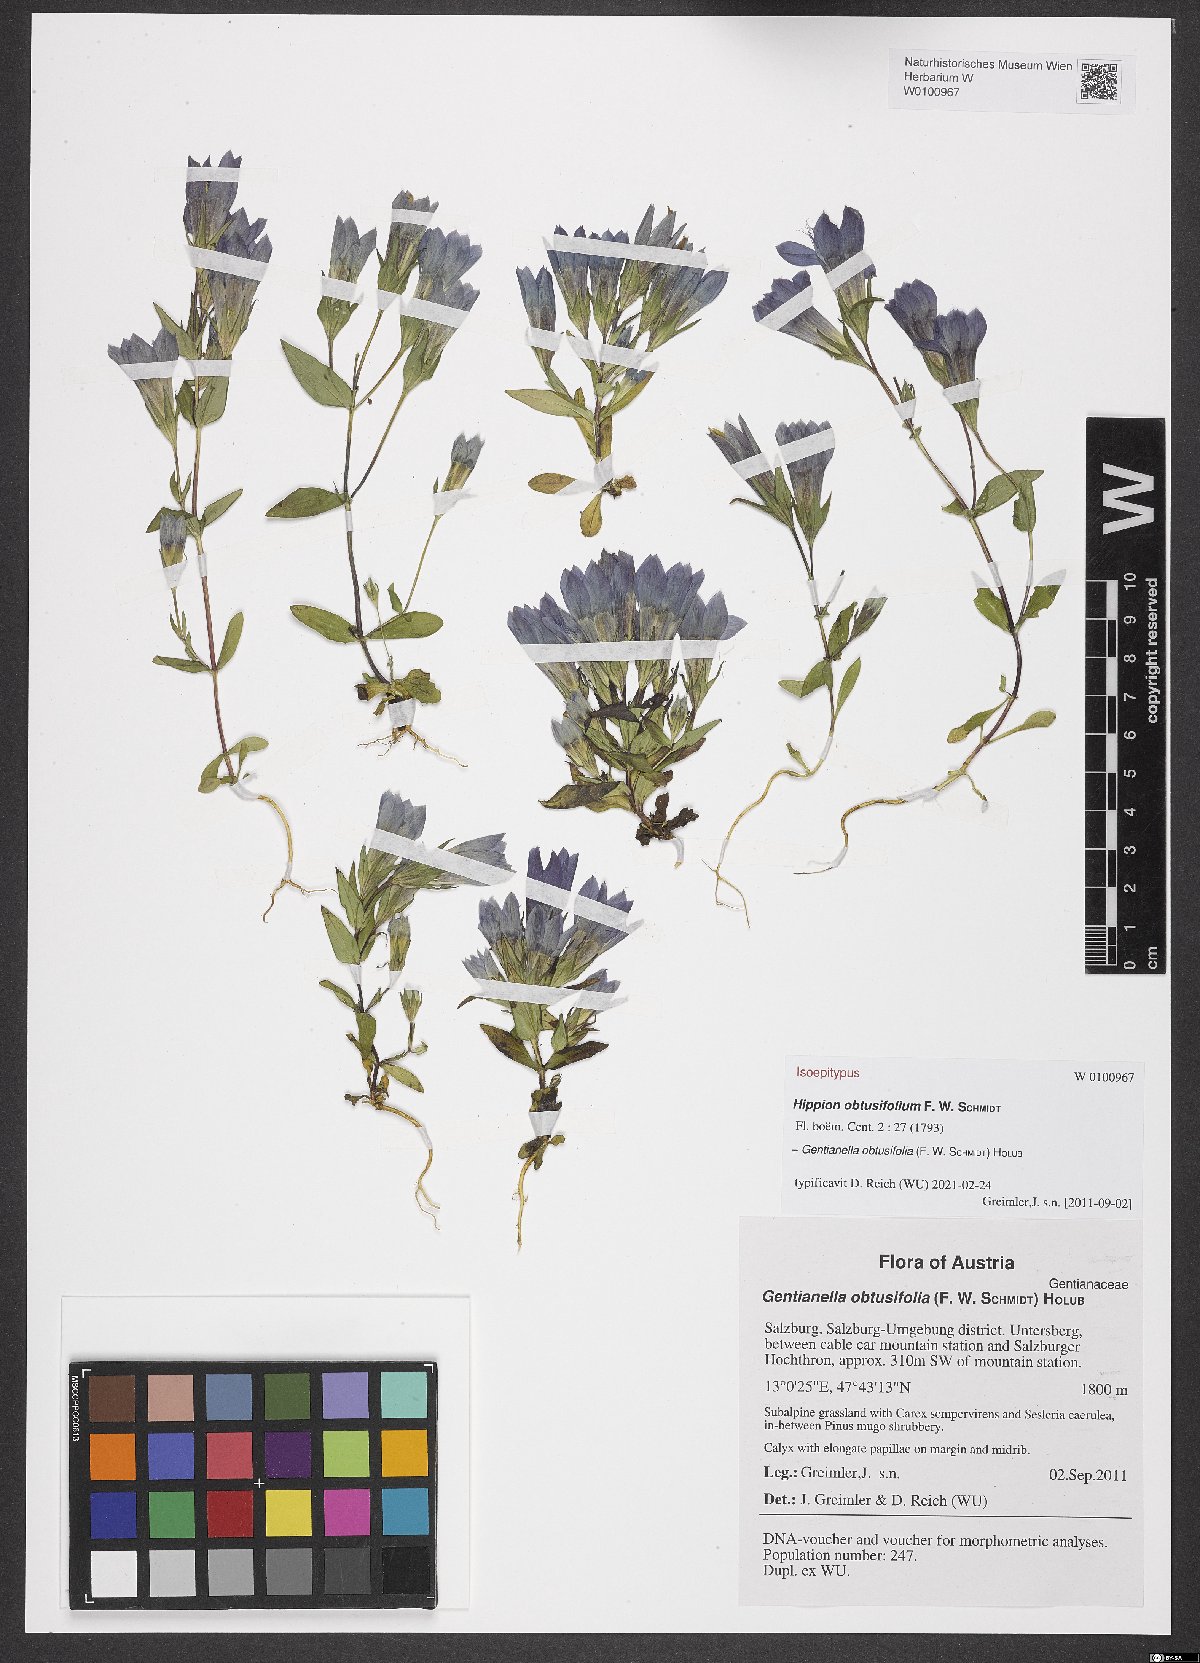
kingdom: Plantae
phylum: Tracheophyta
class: Magnoliopsida
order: Gentianales
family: Gentianaceae
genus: Gentianella
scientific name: Gentianella obtusifolia
